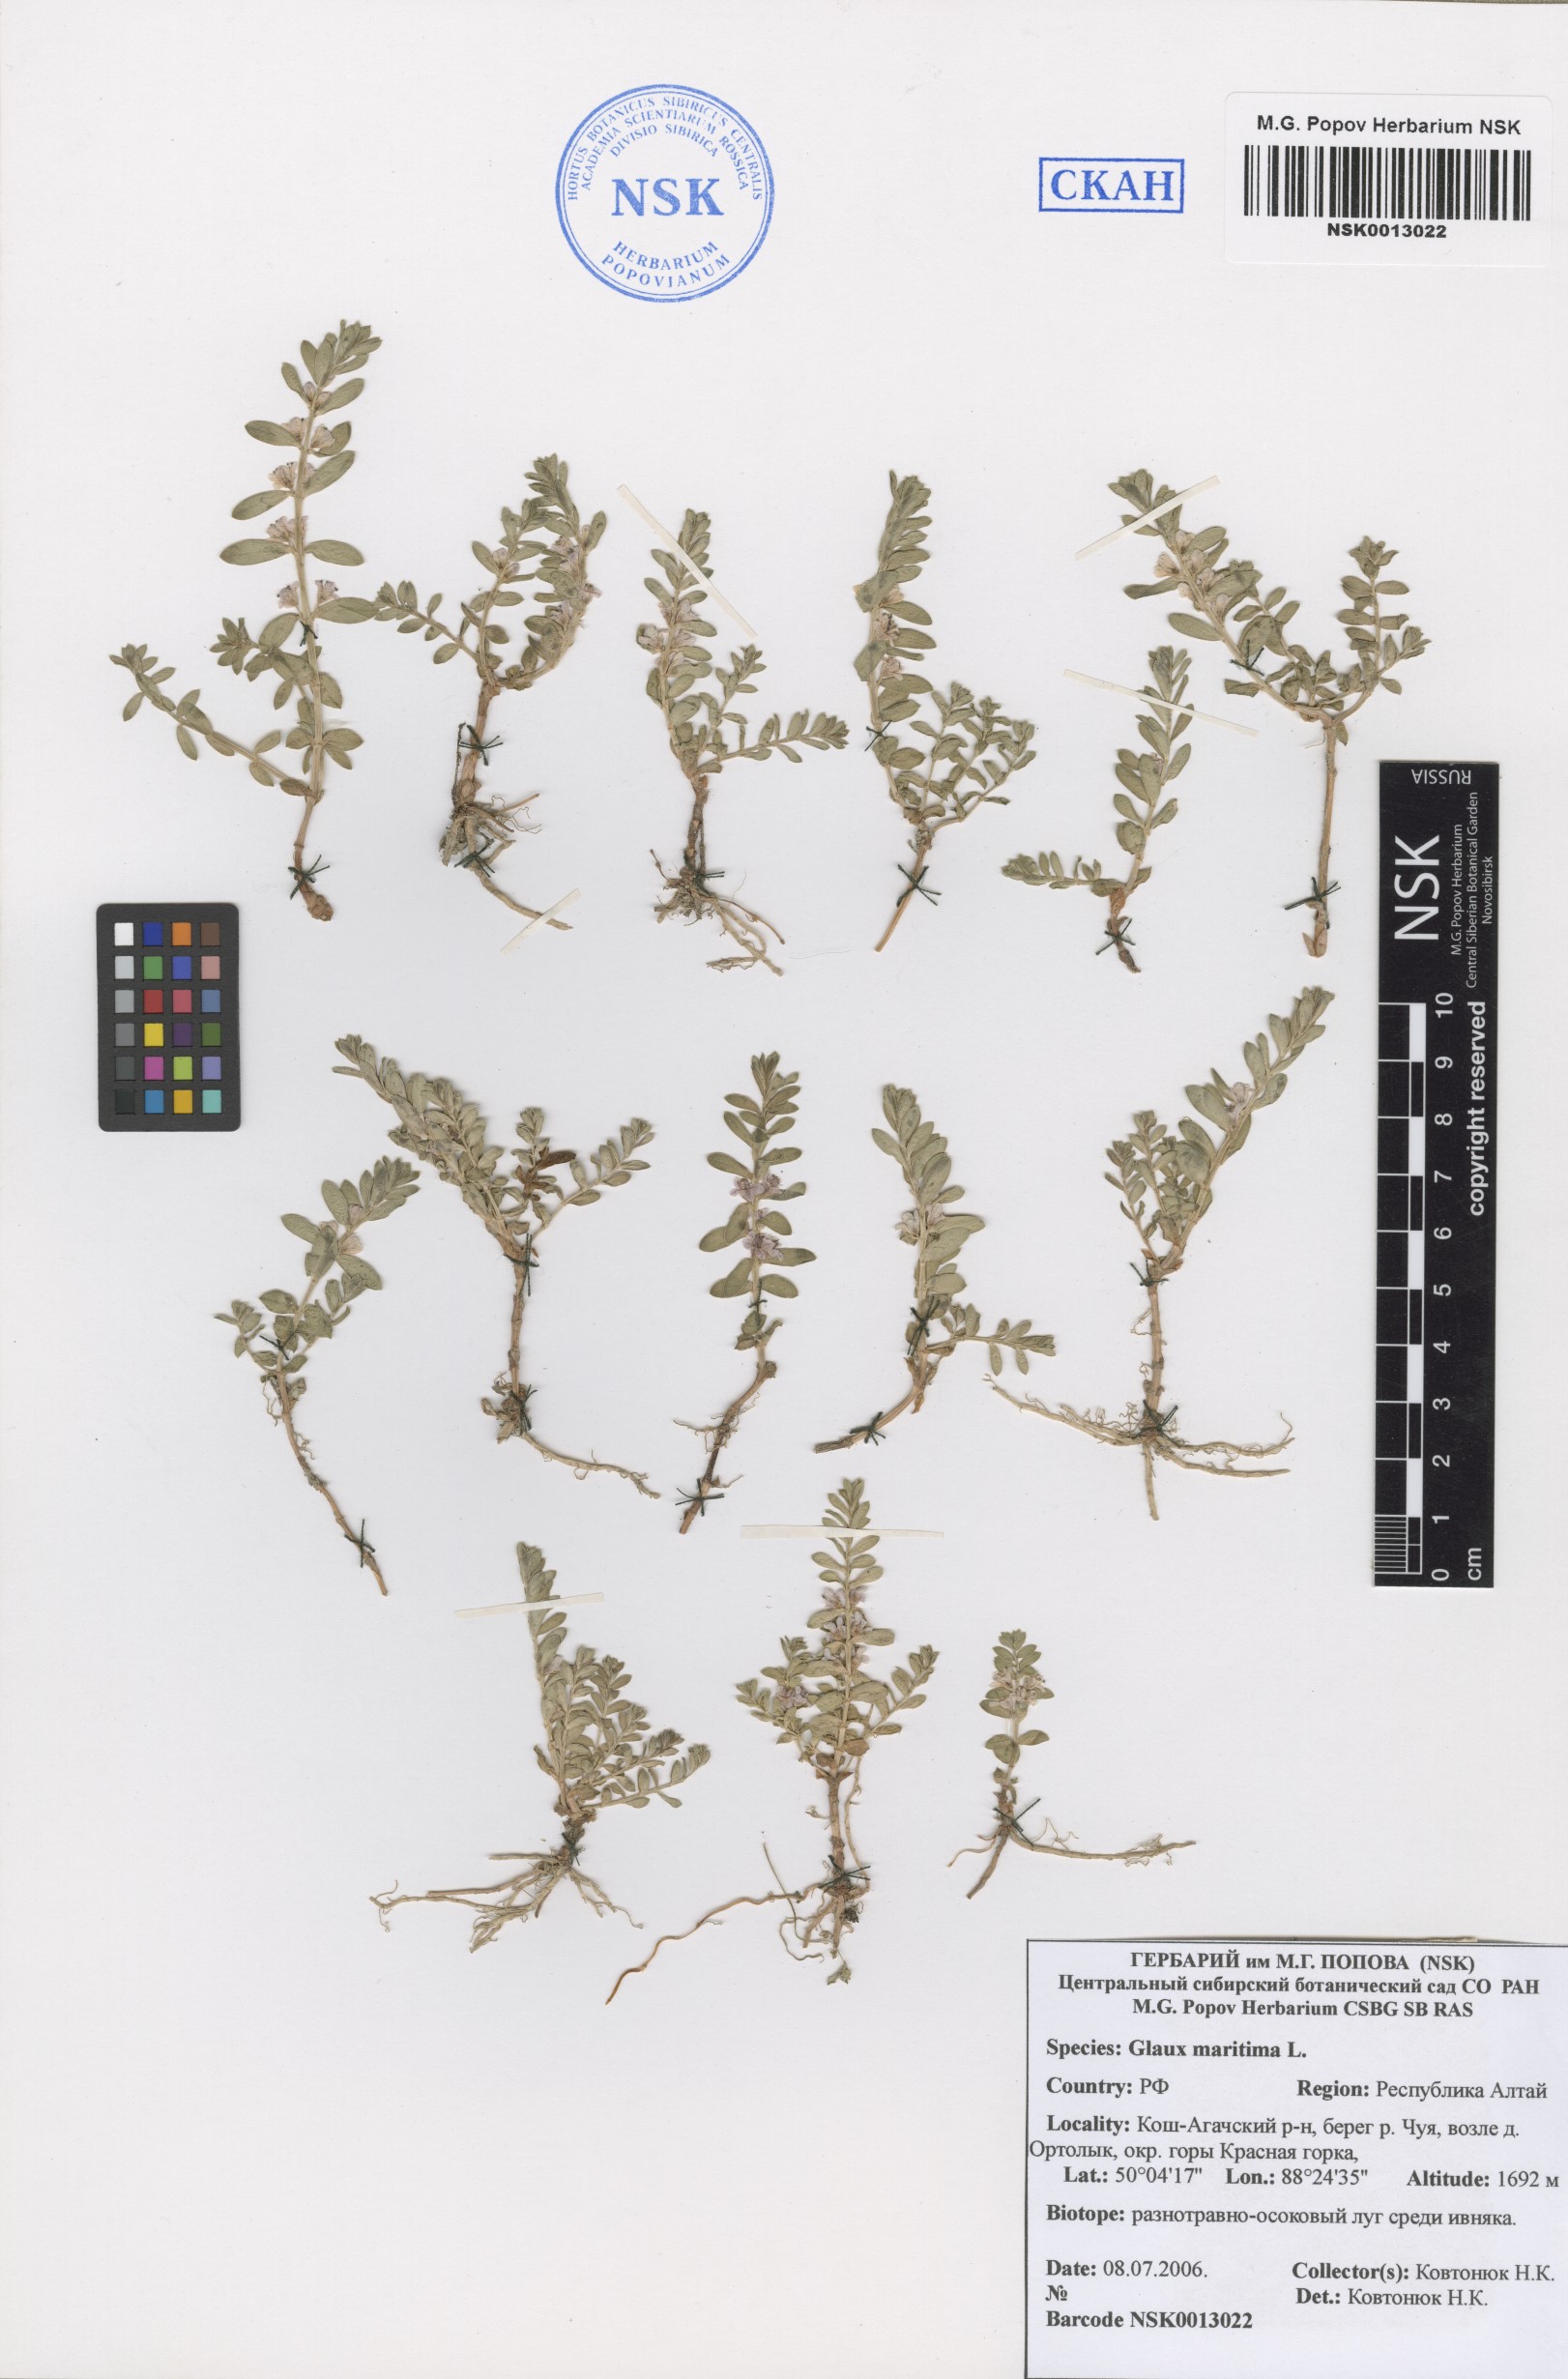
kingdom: Plantae
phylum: Tracheophyta
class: Magnoliopsida
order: Ericales
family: Primulaceae
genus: Lysimachia
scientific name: Lysimachia maritima
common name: Sea milkwort
